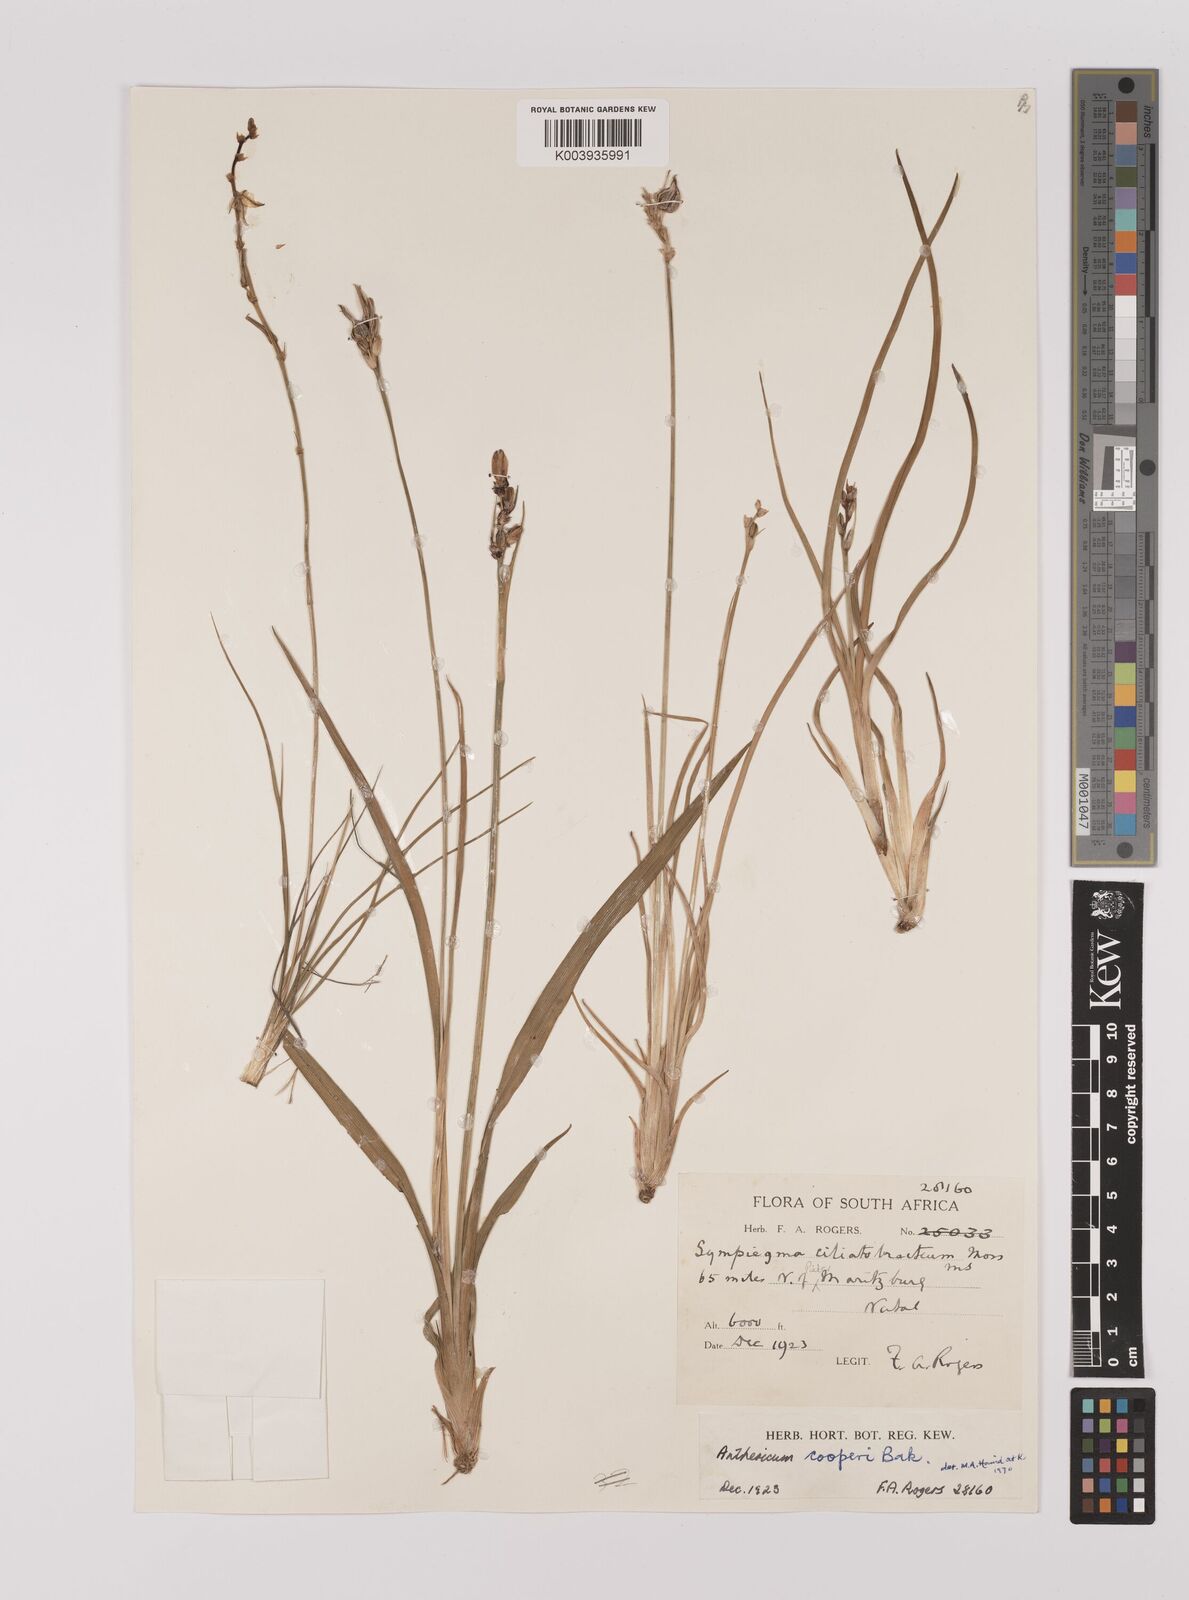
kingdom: Plantae
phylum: Tracheophyta
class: Liliopsida
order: Asparagales
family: Asparagaceae
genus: Chlorophytum
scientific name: Chlorophytum cooperi
